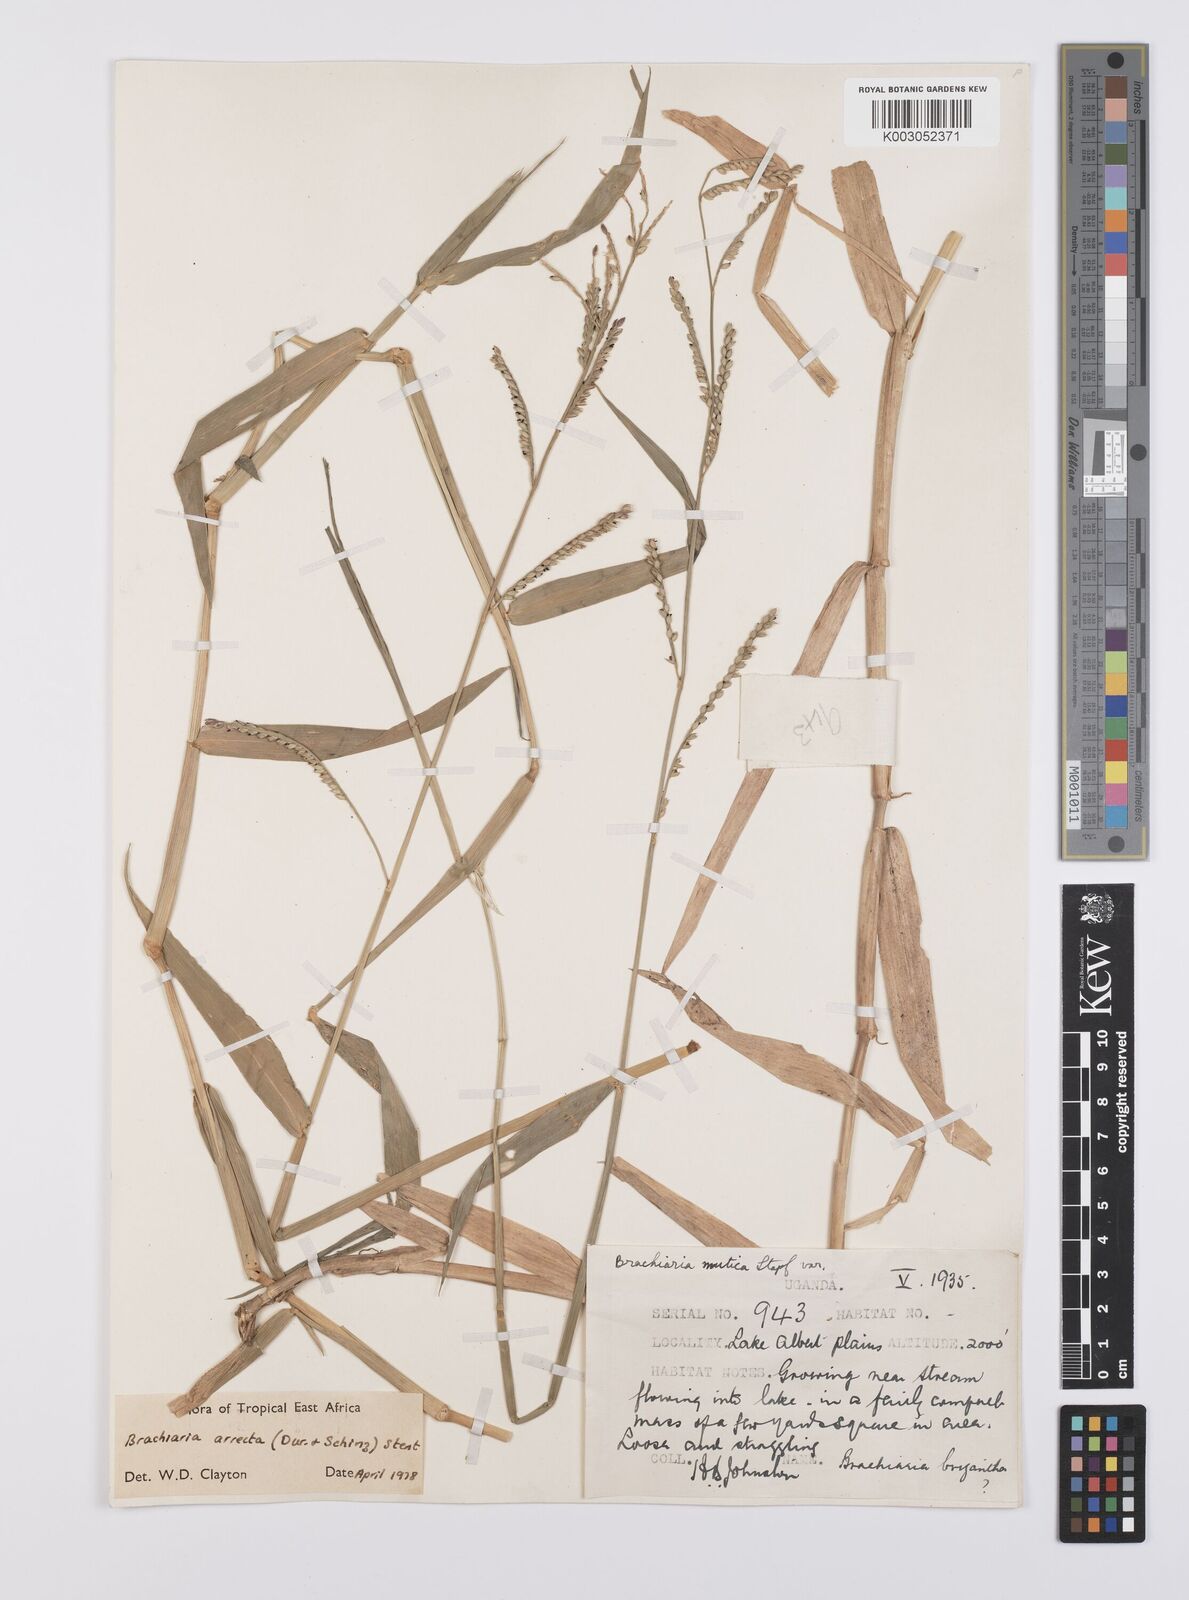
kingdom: Plantae
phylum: Tracheophyta
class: Liliopsida
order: Poales
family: Poaceae
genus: Urochloa
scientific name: Urochloa arrecta
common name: African signalgrass
